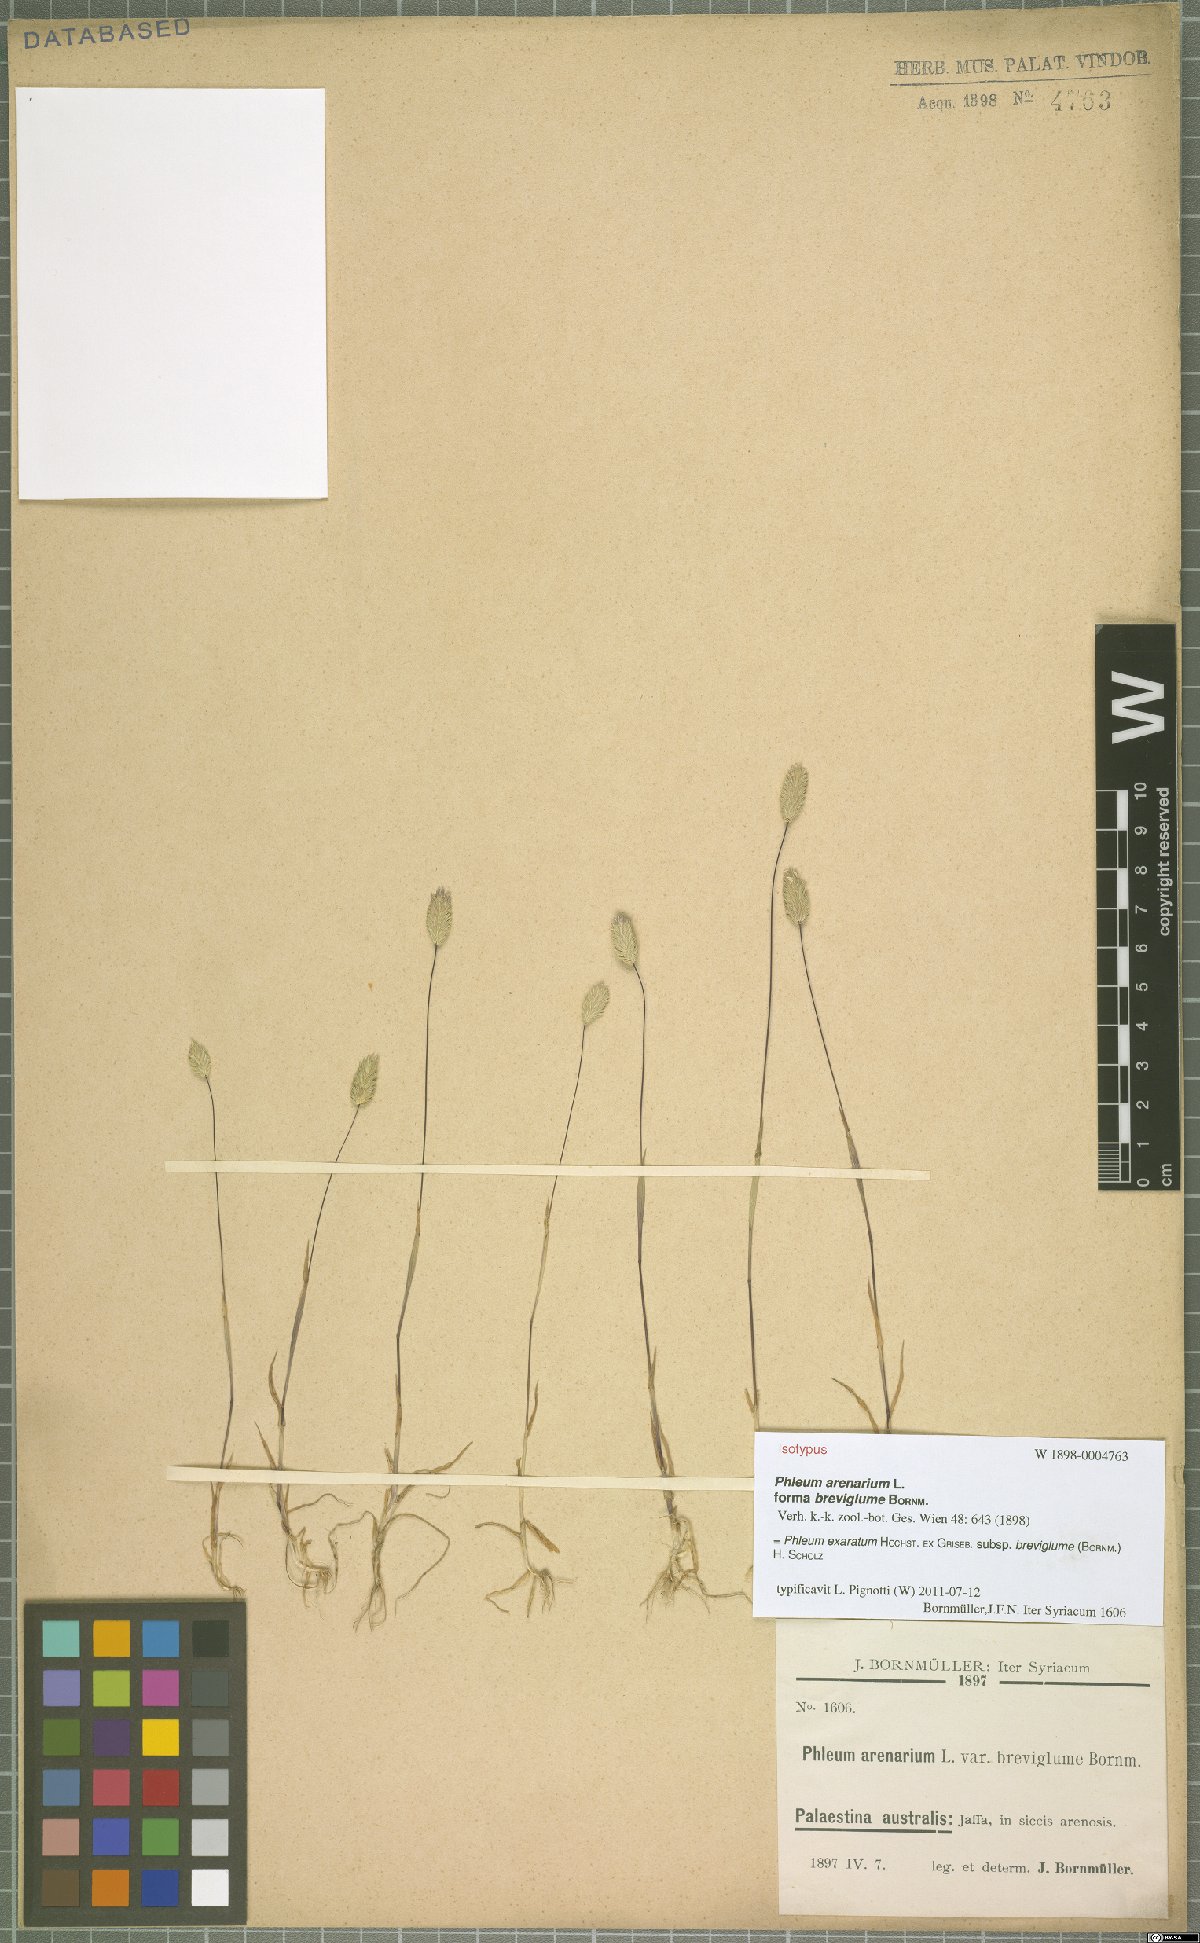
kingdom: Plantae
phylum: Tracheophyta
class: Liliopsida
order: Poales
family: Poaceae
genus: Phleum
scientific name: Phleum exaratum
